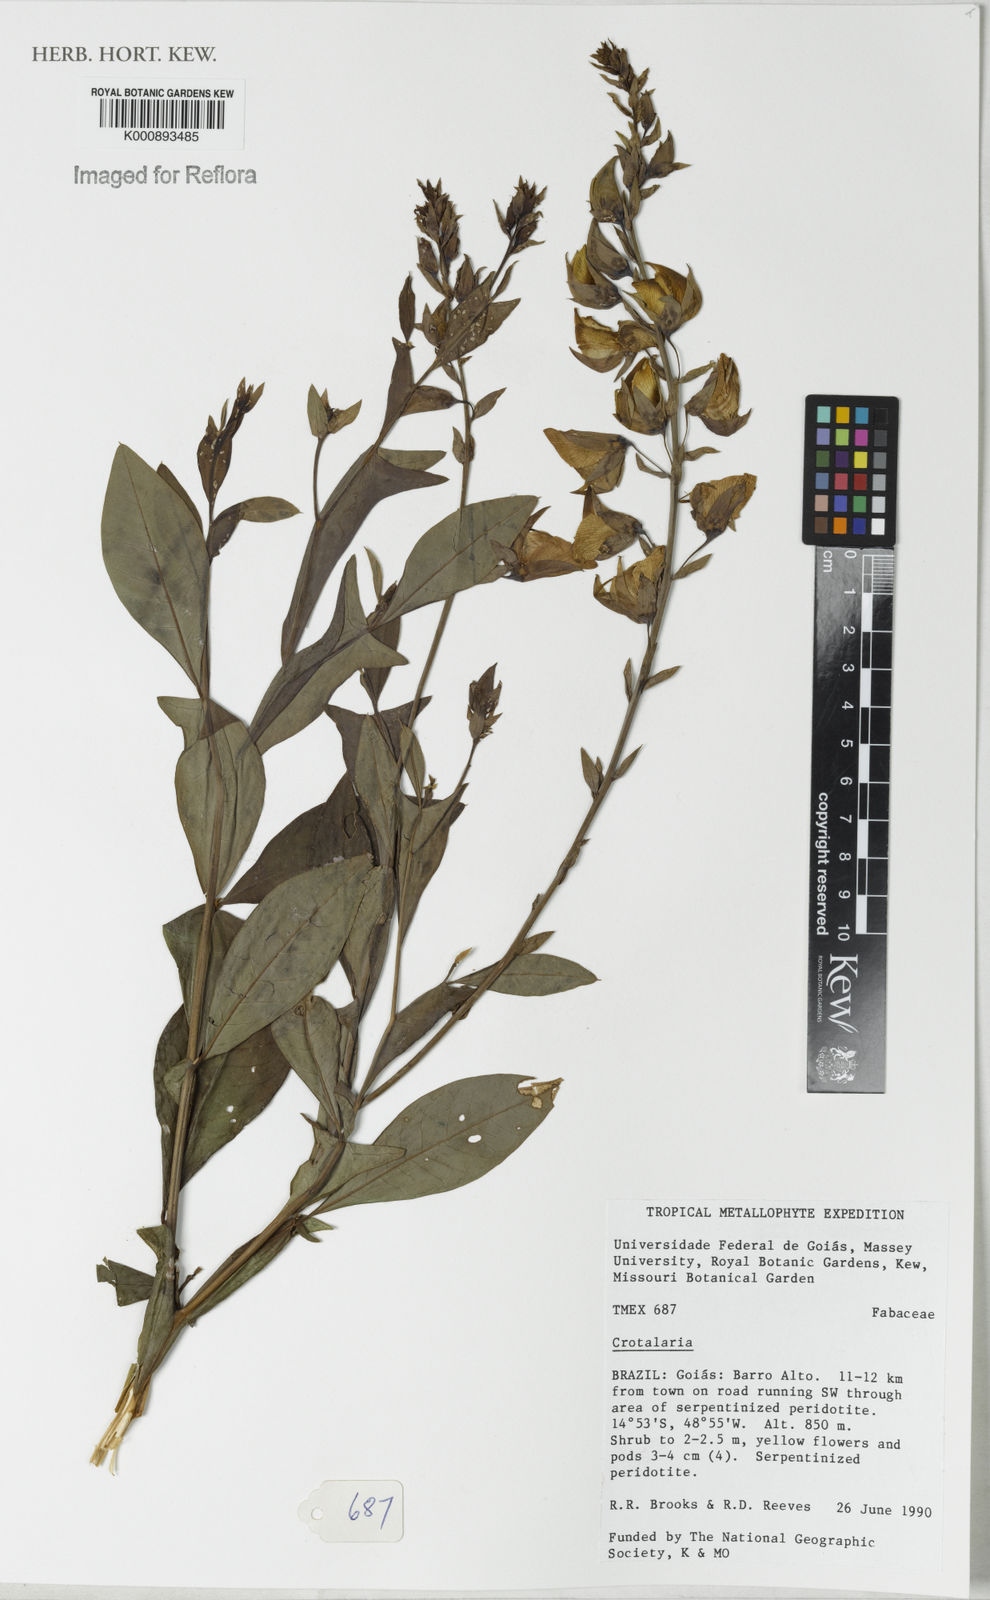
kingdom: Plantae
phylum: Tracheophyta
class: Magnoliopsida
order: Fabales
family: Fabaceae
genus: Crotalaria
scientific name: Crotalaria paulina
